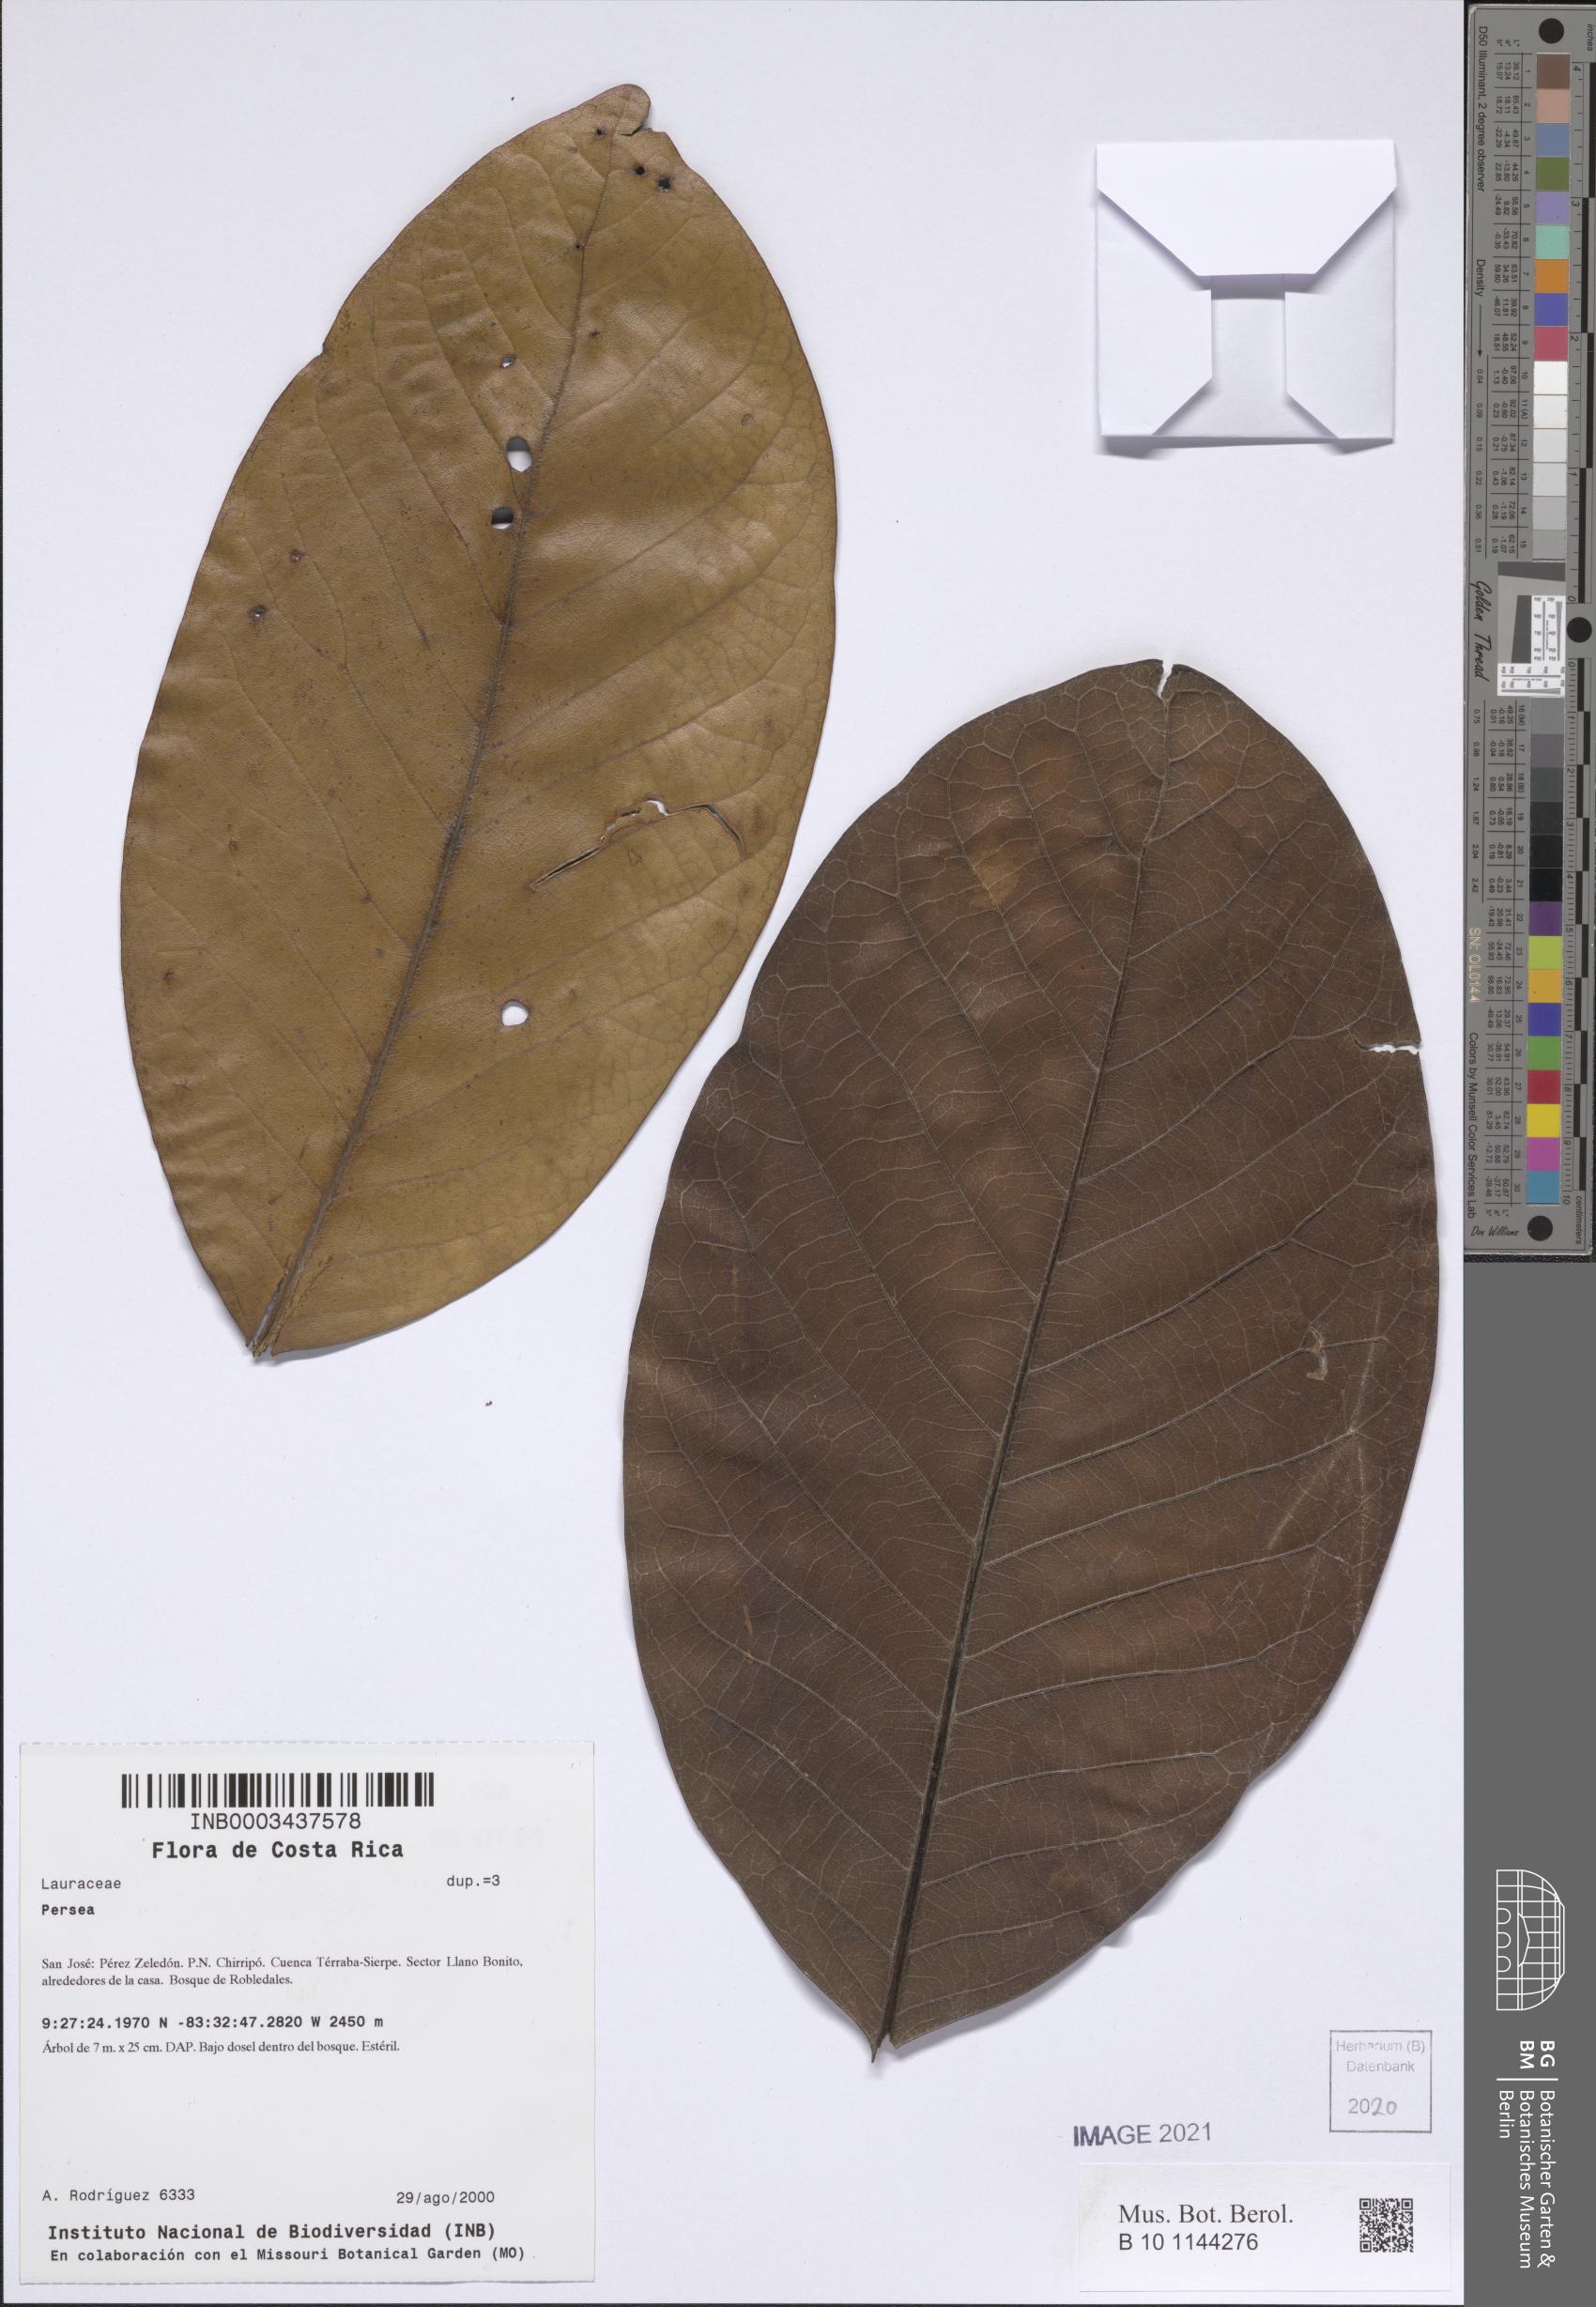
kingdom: Plantae
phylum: Tracheophyta
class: Magnoliopsida
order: Laurales
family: Lauraceae
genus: Persea
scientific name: Persea
